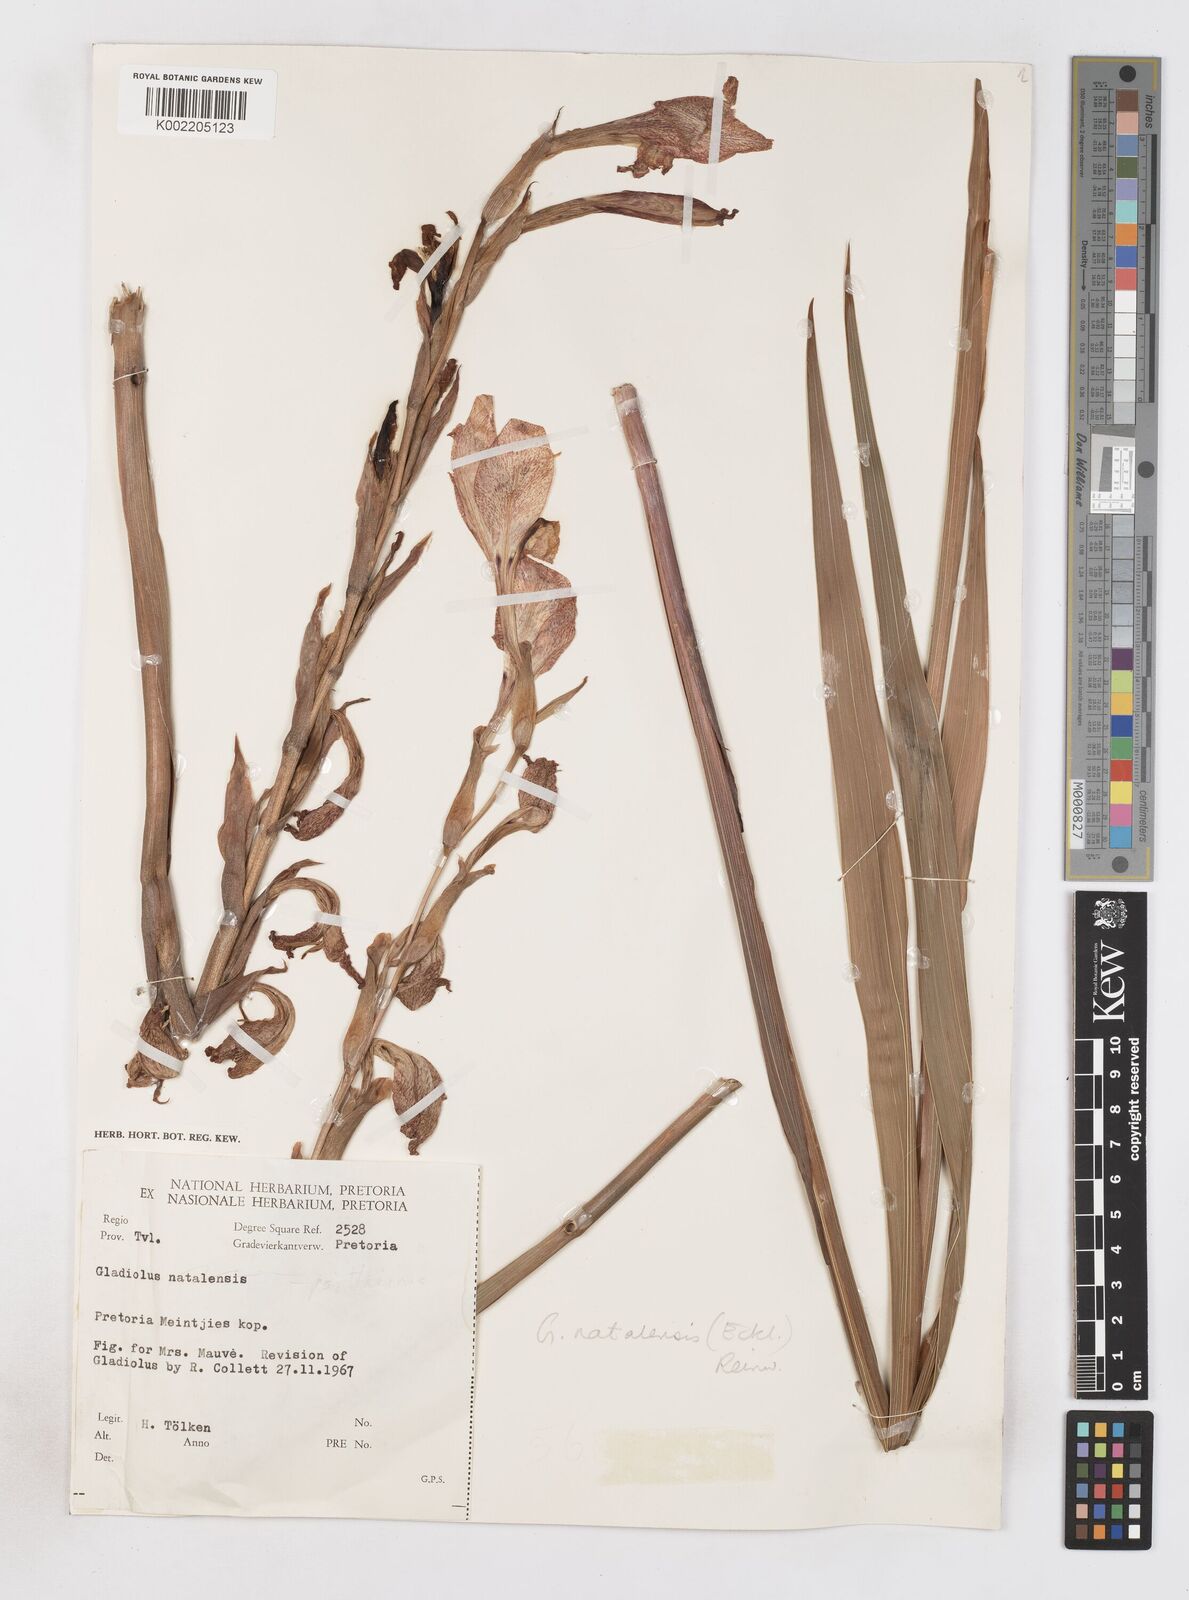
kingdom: Plantae
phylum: Tracheophyta
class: Liliopsida
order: Asparagales
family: Iridaceae
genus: Gladiolus
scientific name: Gladiolus dalenii
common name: Cornflag
